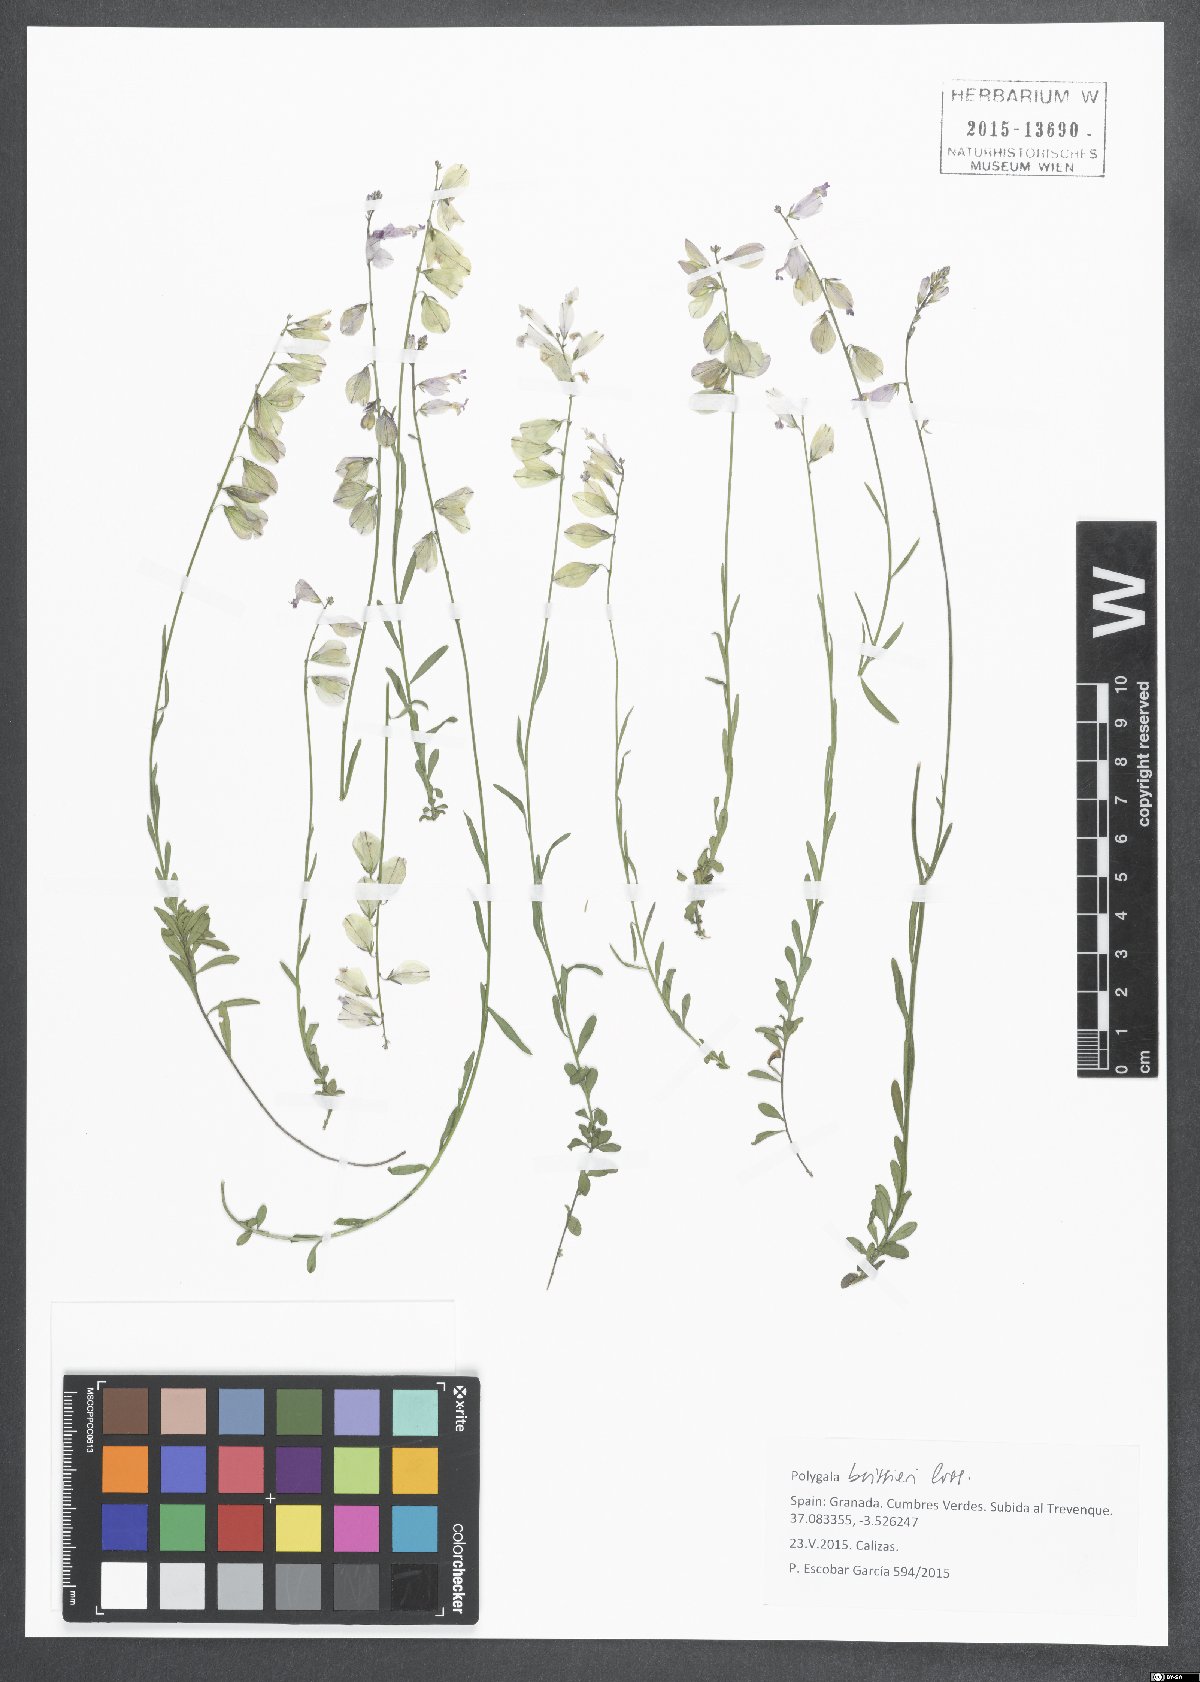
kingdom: Plantae
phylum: Tracheophyta
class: Magnoliopsida
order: Fabales
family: Polygalaceae
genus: Polygala
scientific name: Polygala boissieri
